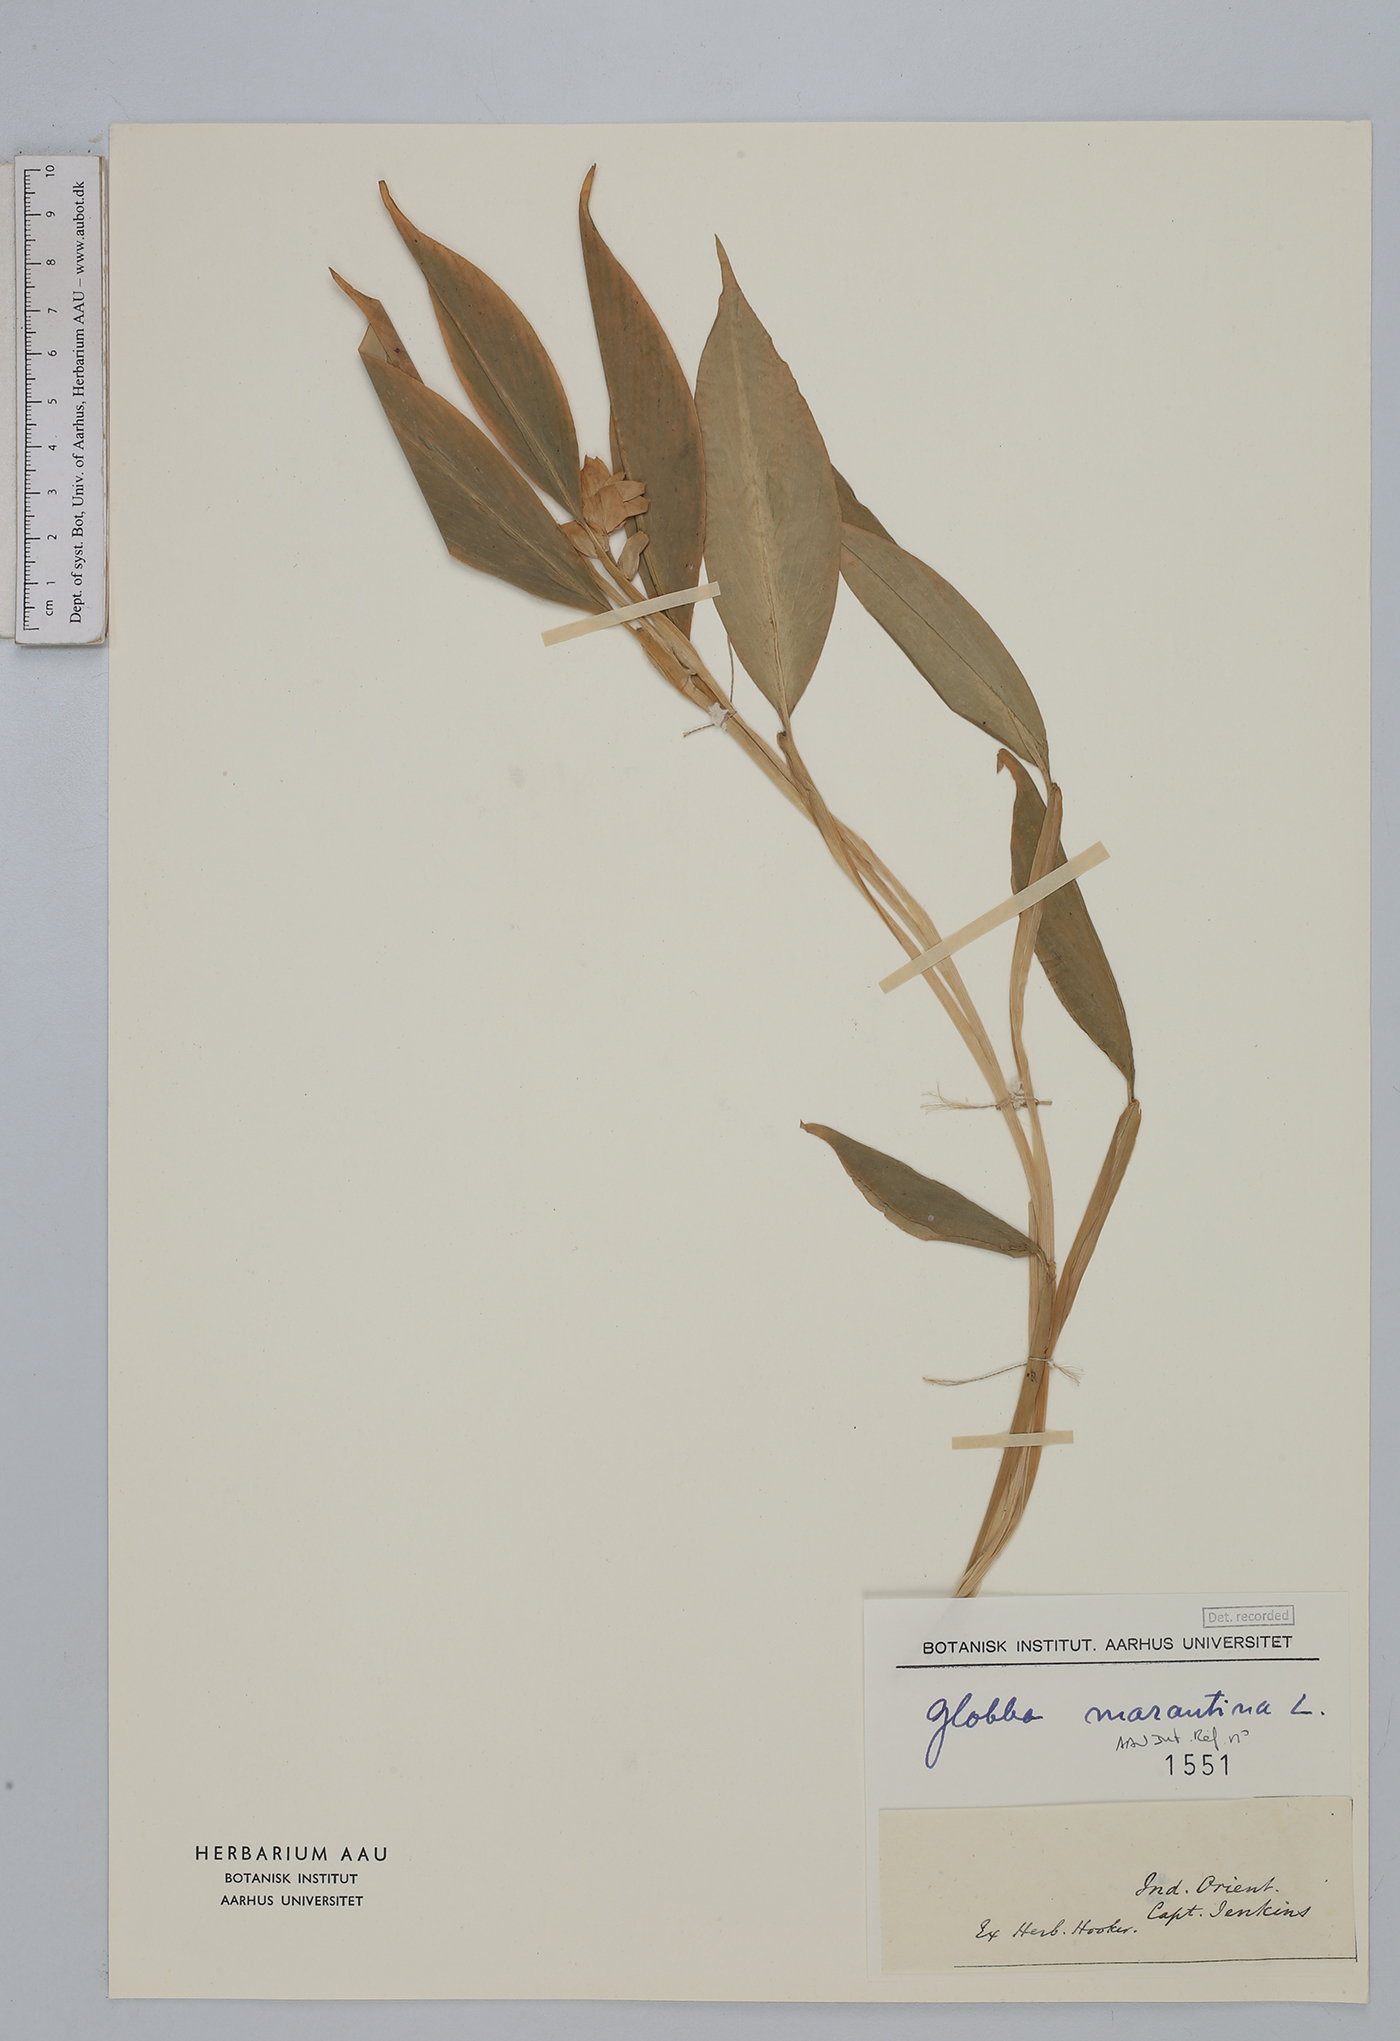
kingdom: Plantae
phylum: Tracheophyta
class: Liliopsida
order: Zingiberales
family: Zingiberaceae
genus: Globba
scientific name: Globba marantina
